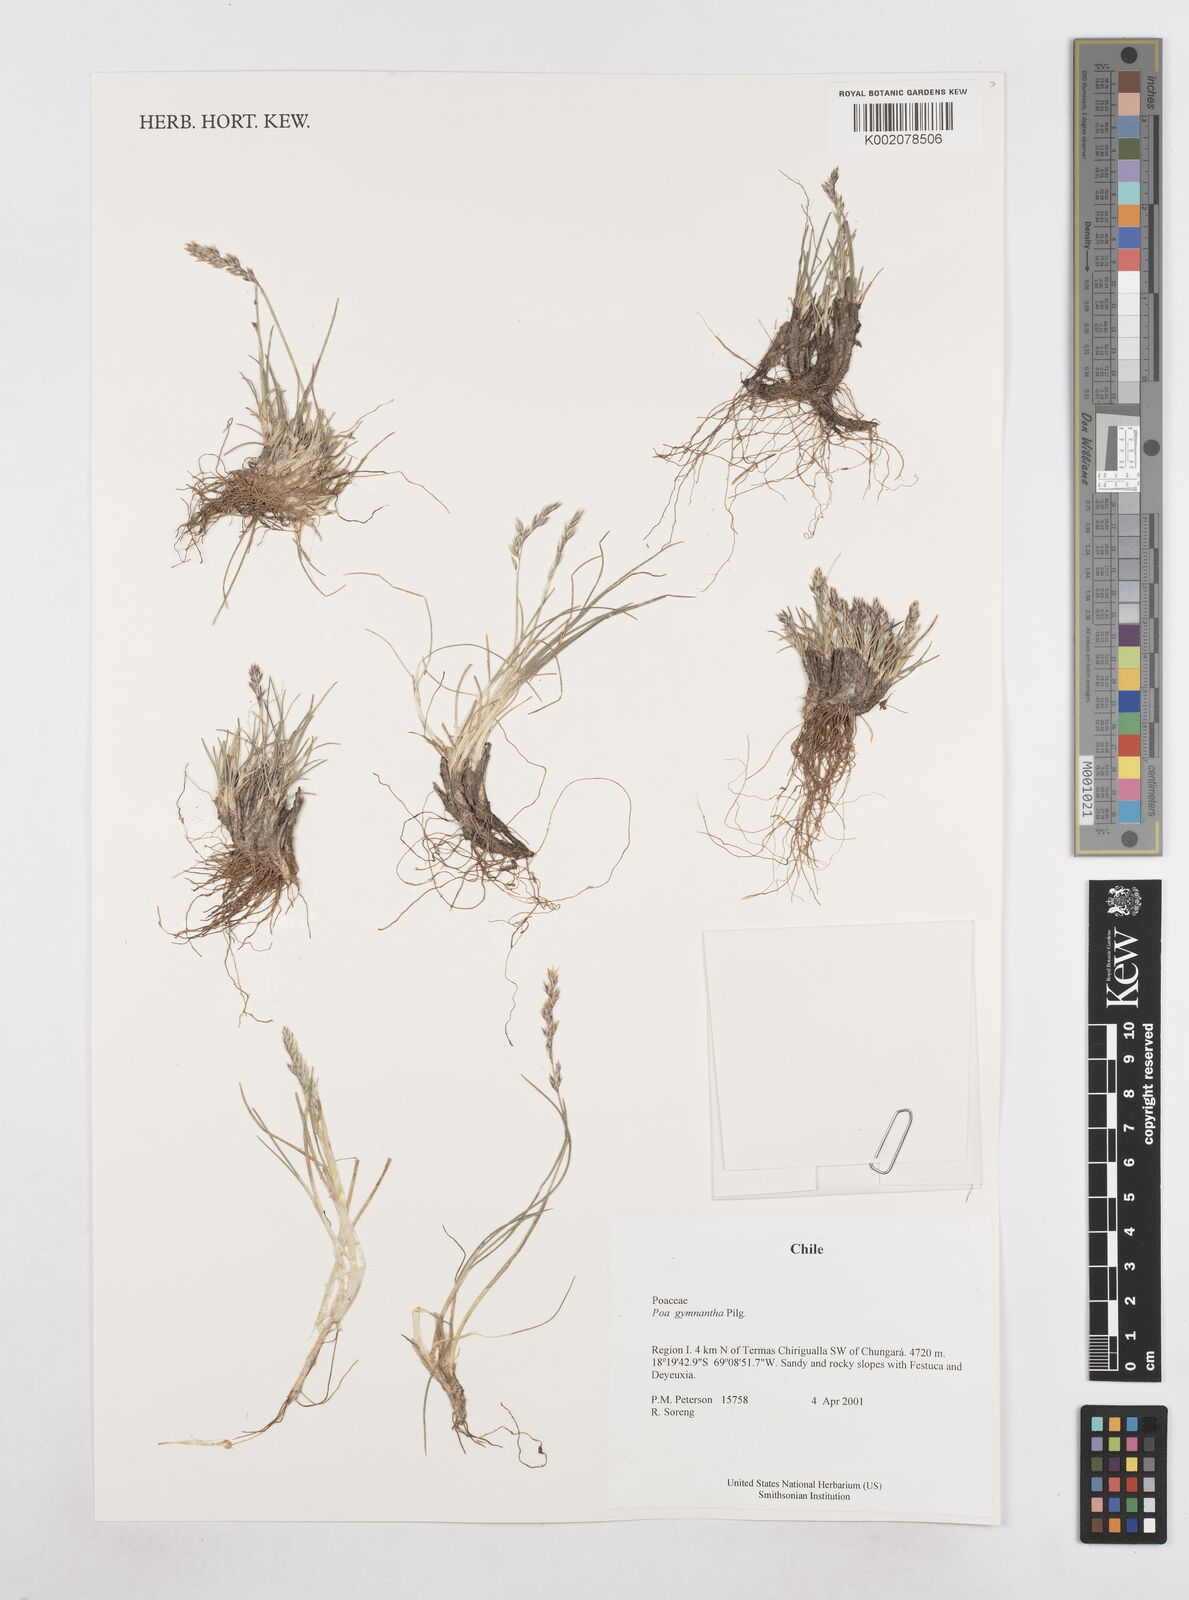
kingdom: Plantae
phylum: Tracheophyta
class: Liliopsida
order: Poales
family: Poaceae
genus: Poa
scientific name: Poa gymnantha
